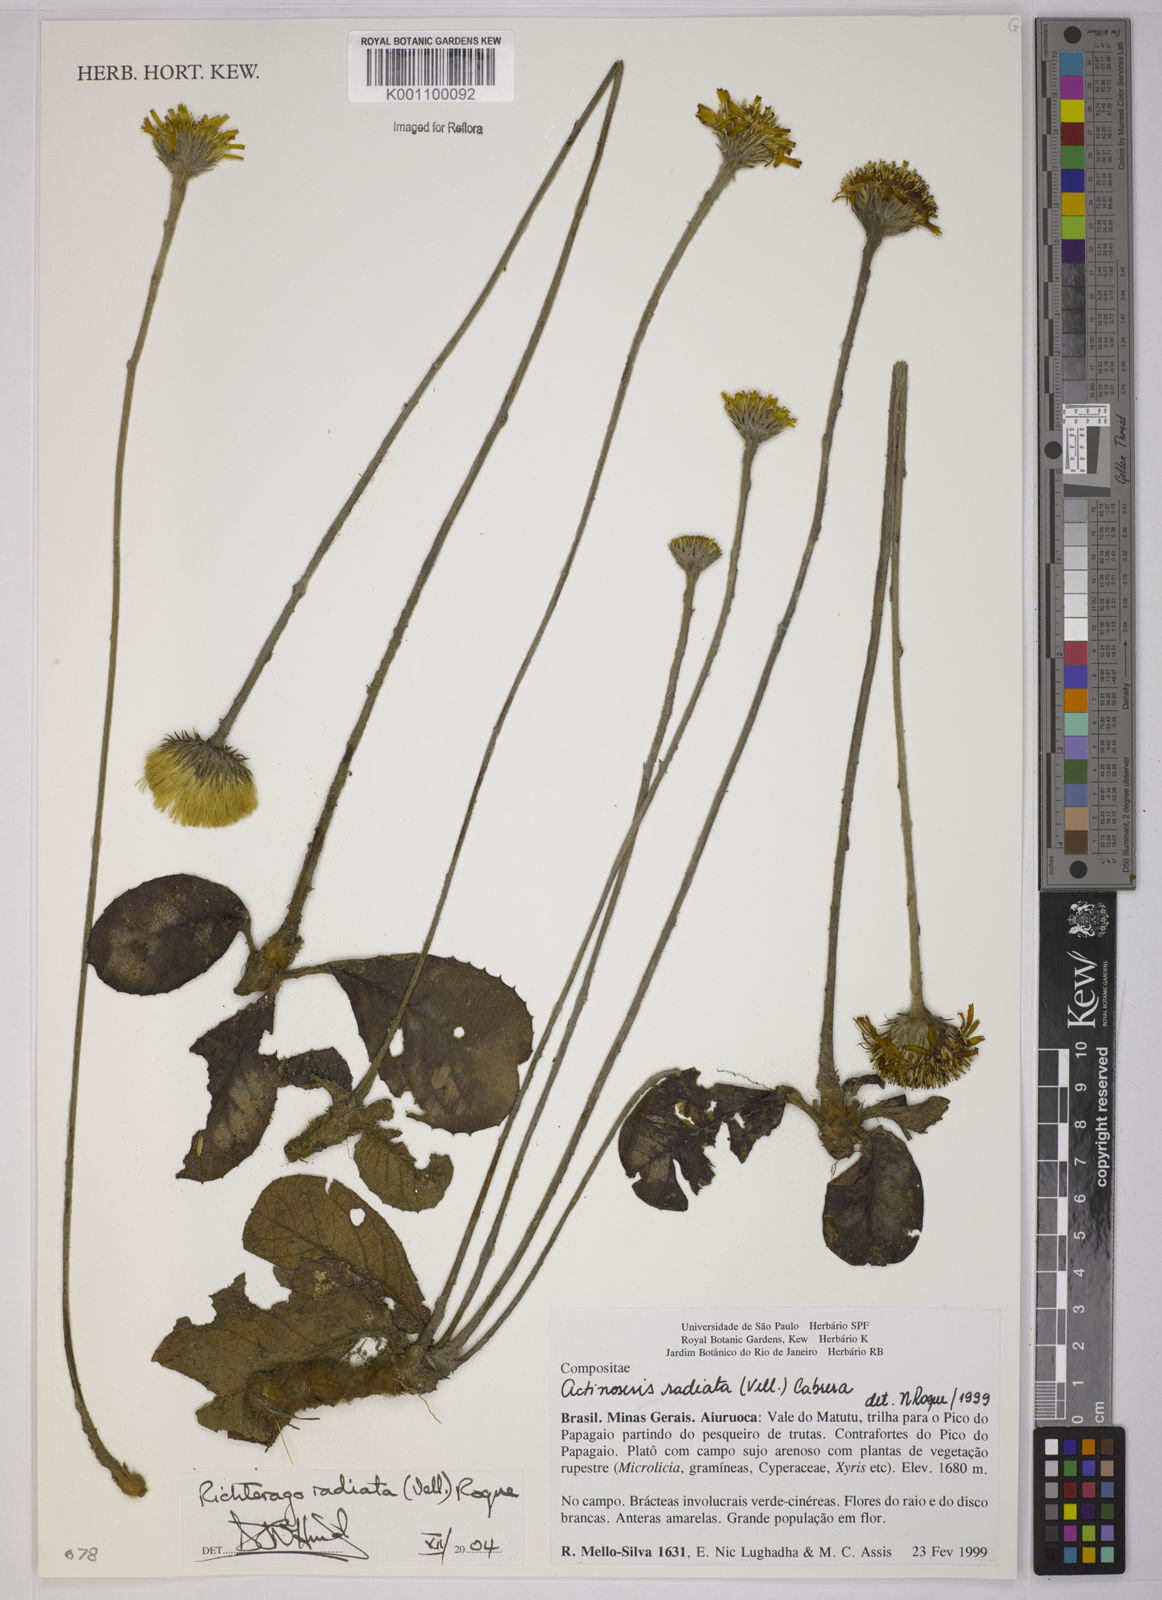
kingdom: Plantae
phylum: Tracheophyta
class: Magnoliopsida
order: Asterales
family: Asteraceae
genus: Richterago
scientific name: Richterago radiata
